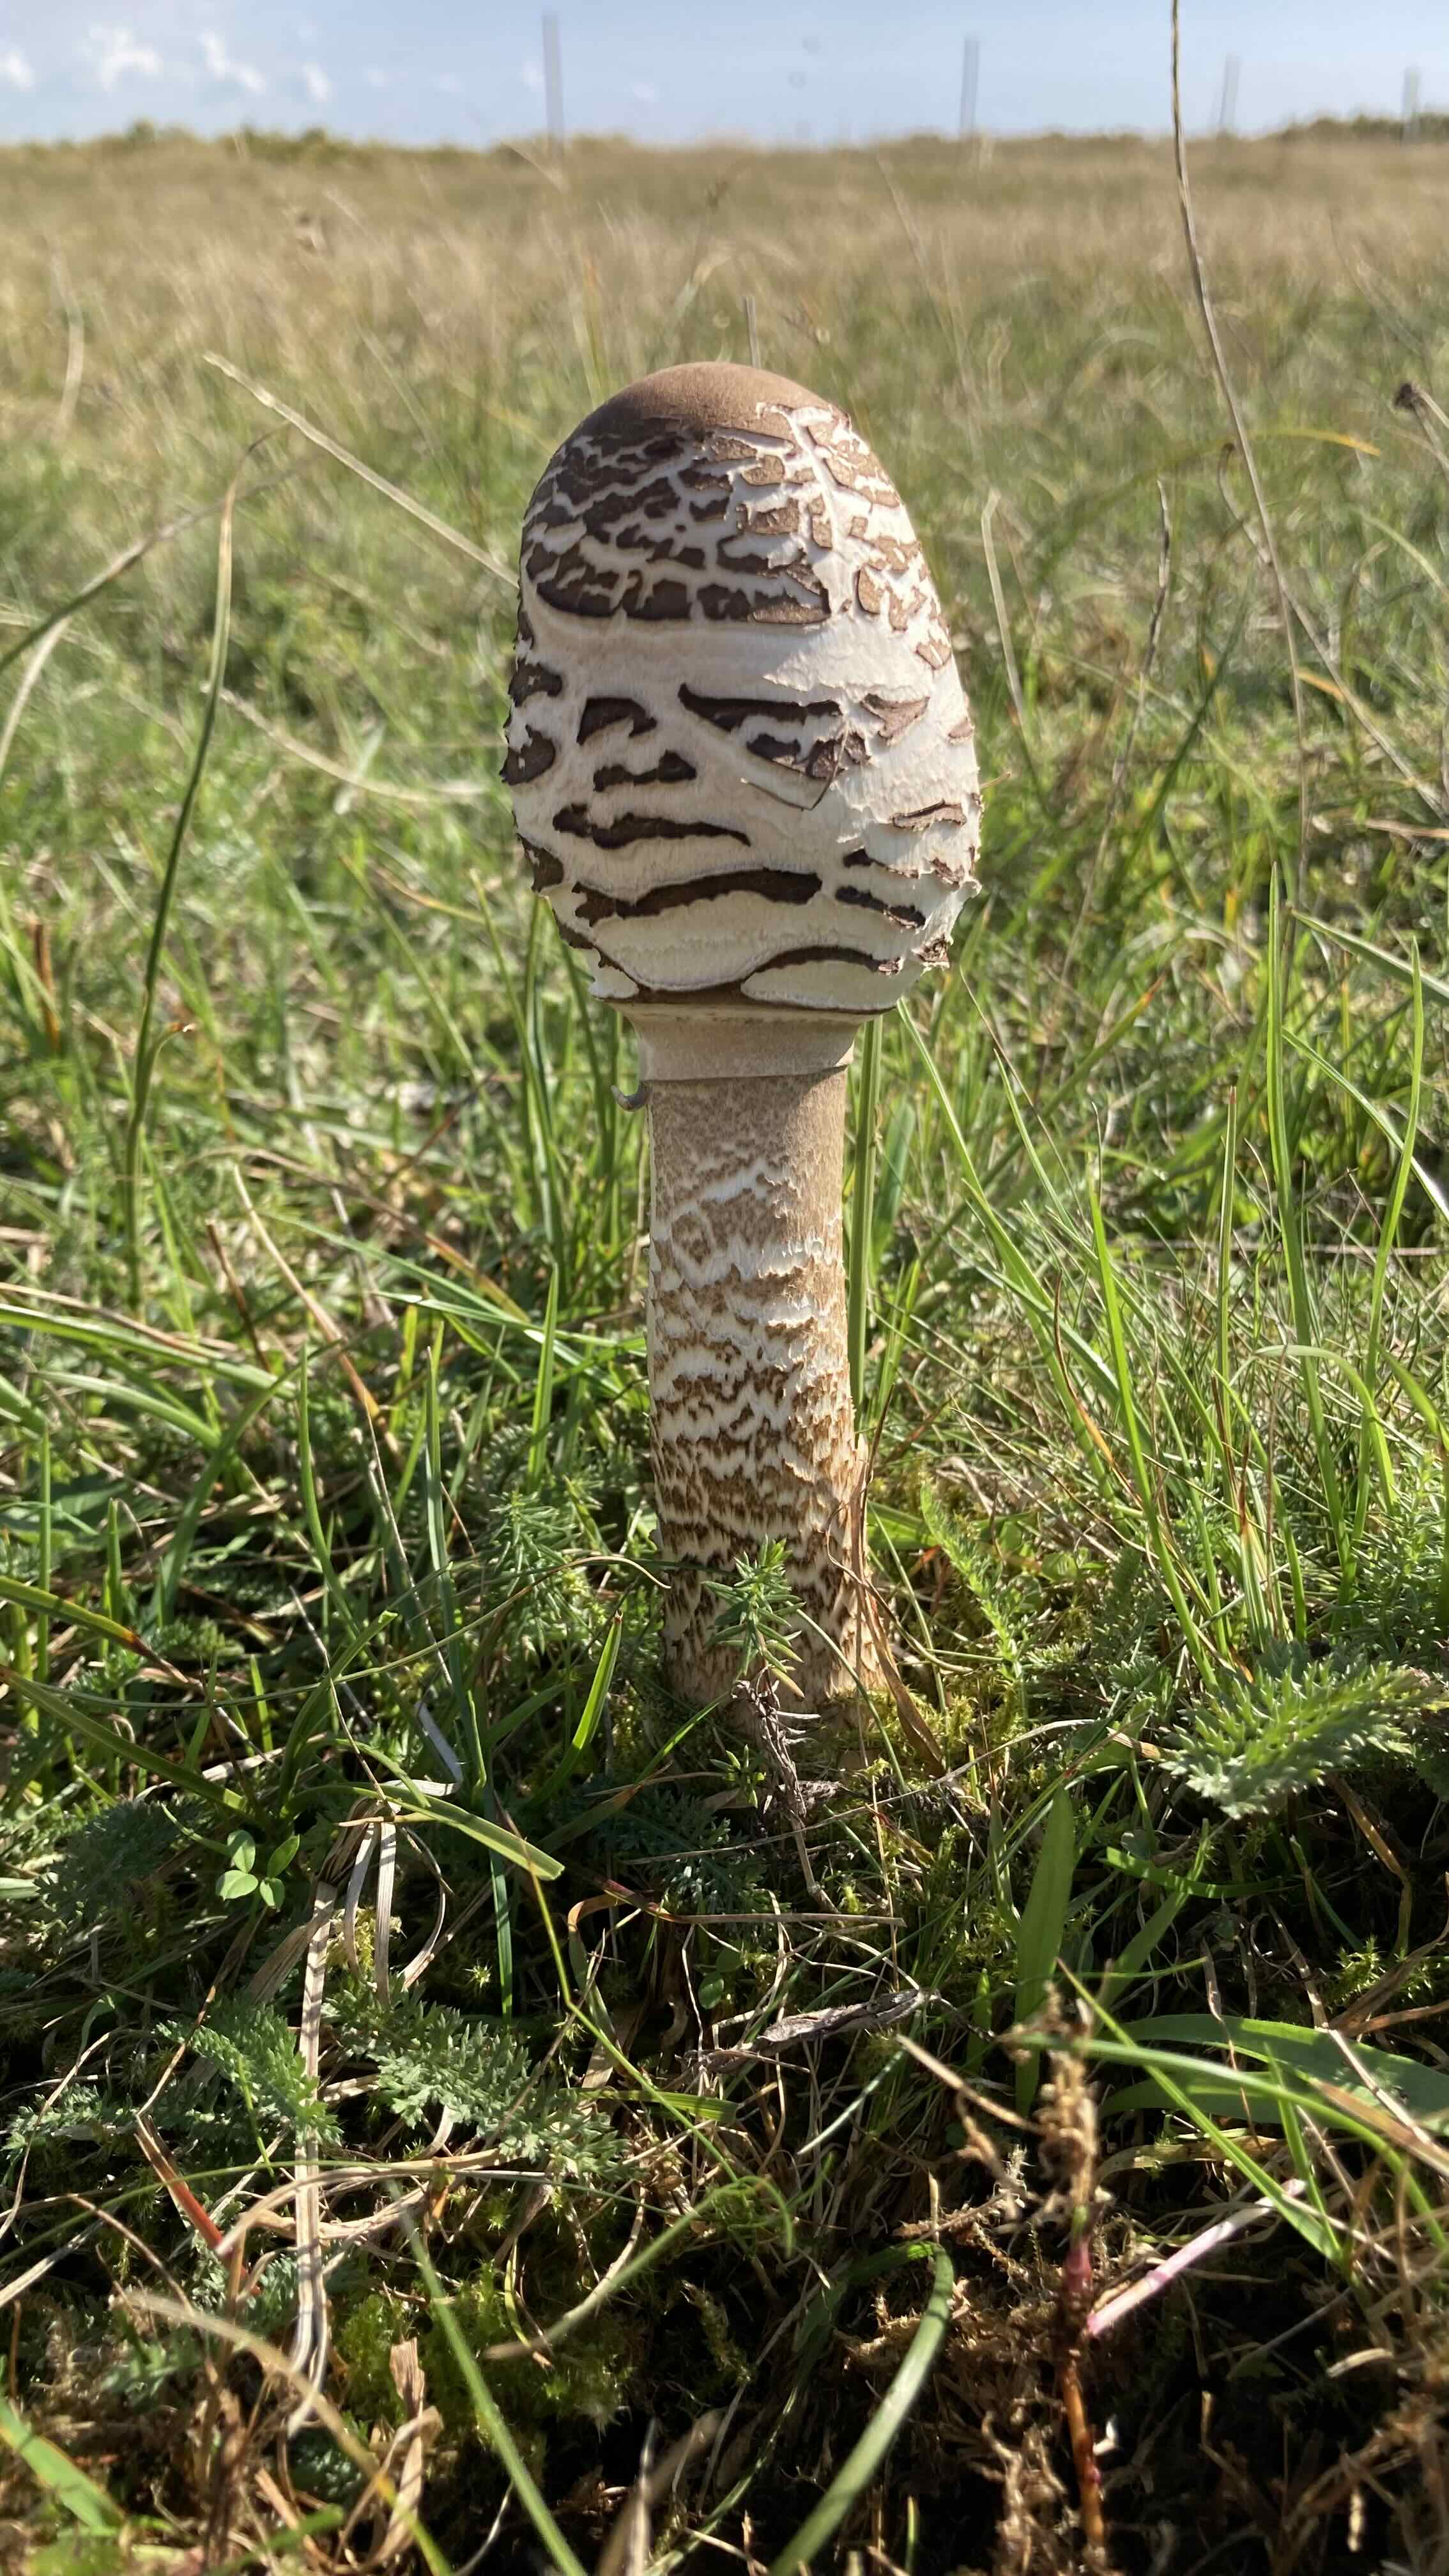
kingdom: Fungi
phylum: Basidiomycota
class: Agaricomycetes
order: Agaricales
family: Agaricaceae
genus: Macrolepiota
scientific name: Macrolepiota procera
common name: stor kæmpeparasolhat
